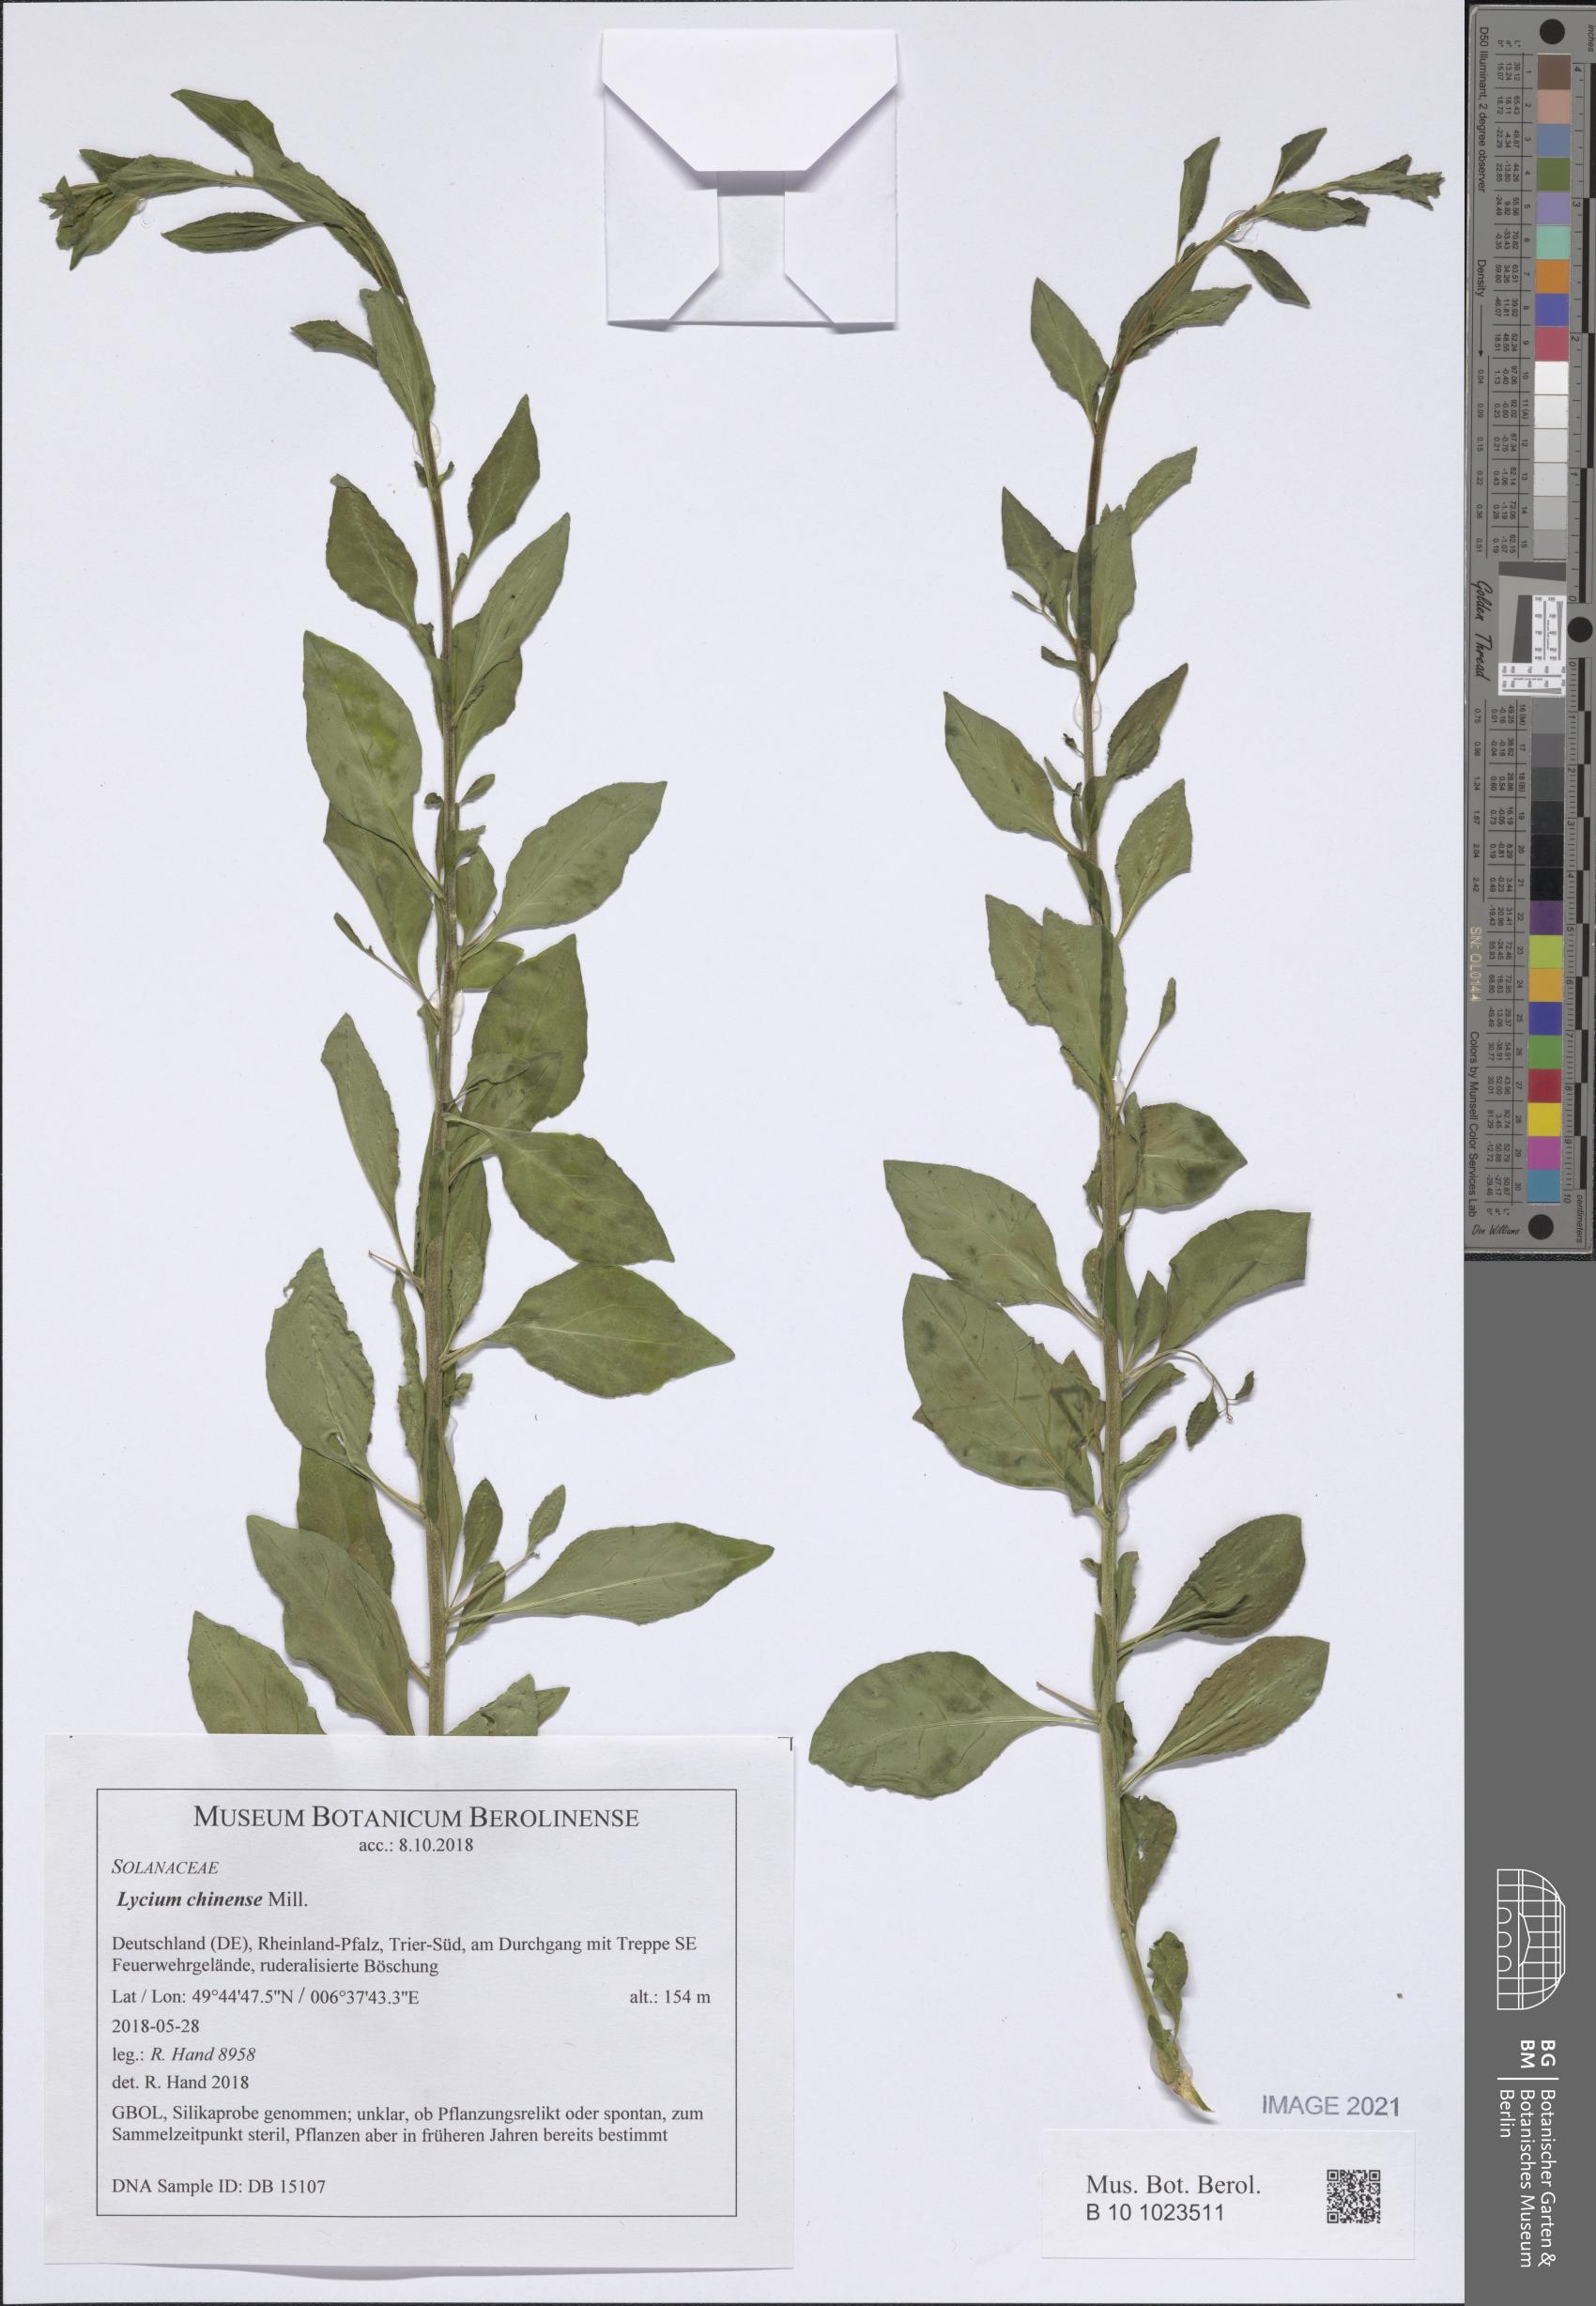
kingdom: Plantae
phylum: Tracheophyta
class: Magnoliopsida
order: Solanales
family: Solanaceae
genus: Lycium
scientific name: Lycium chinense
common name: Chinese teaplant
